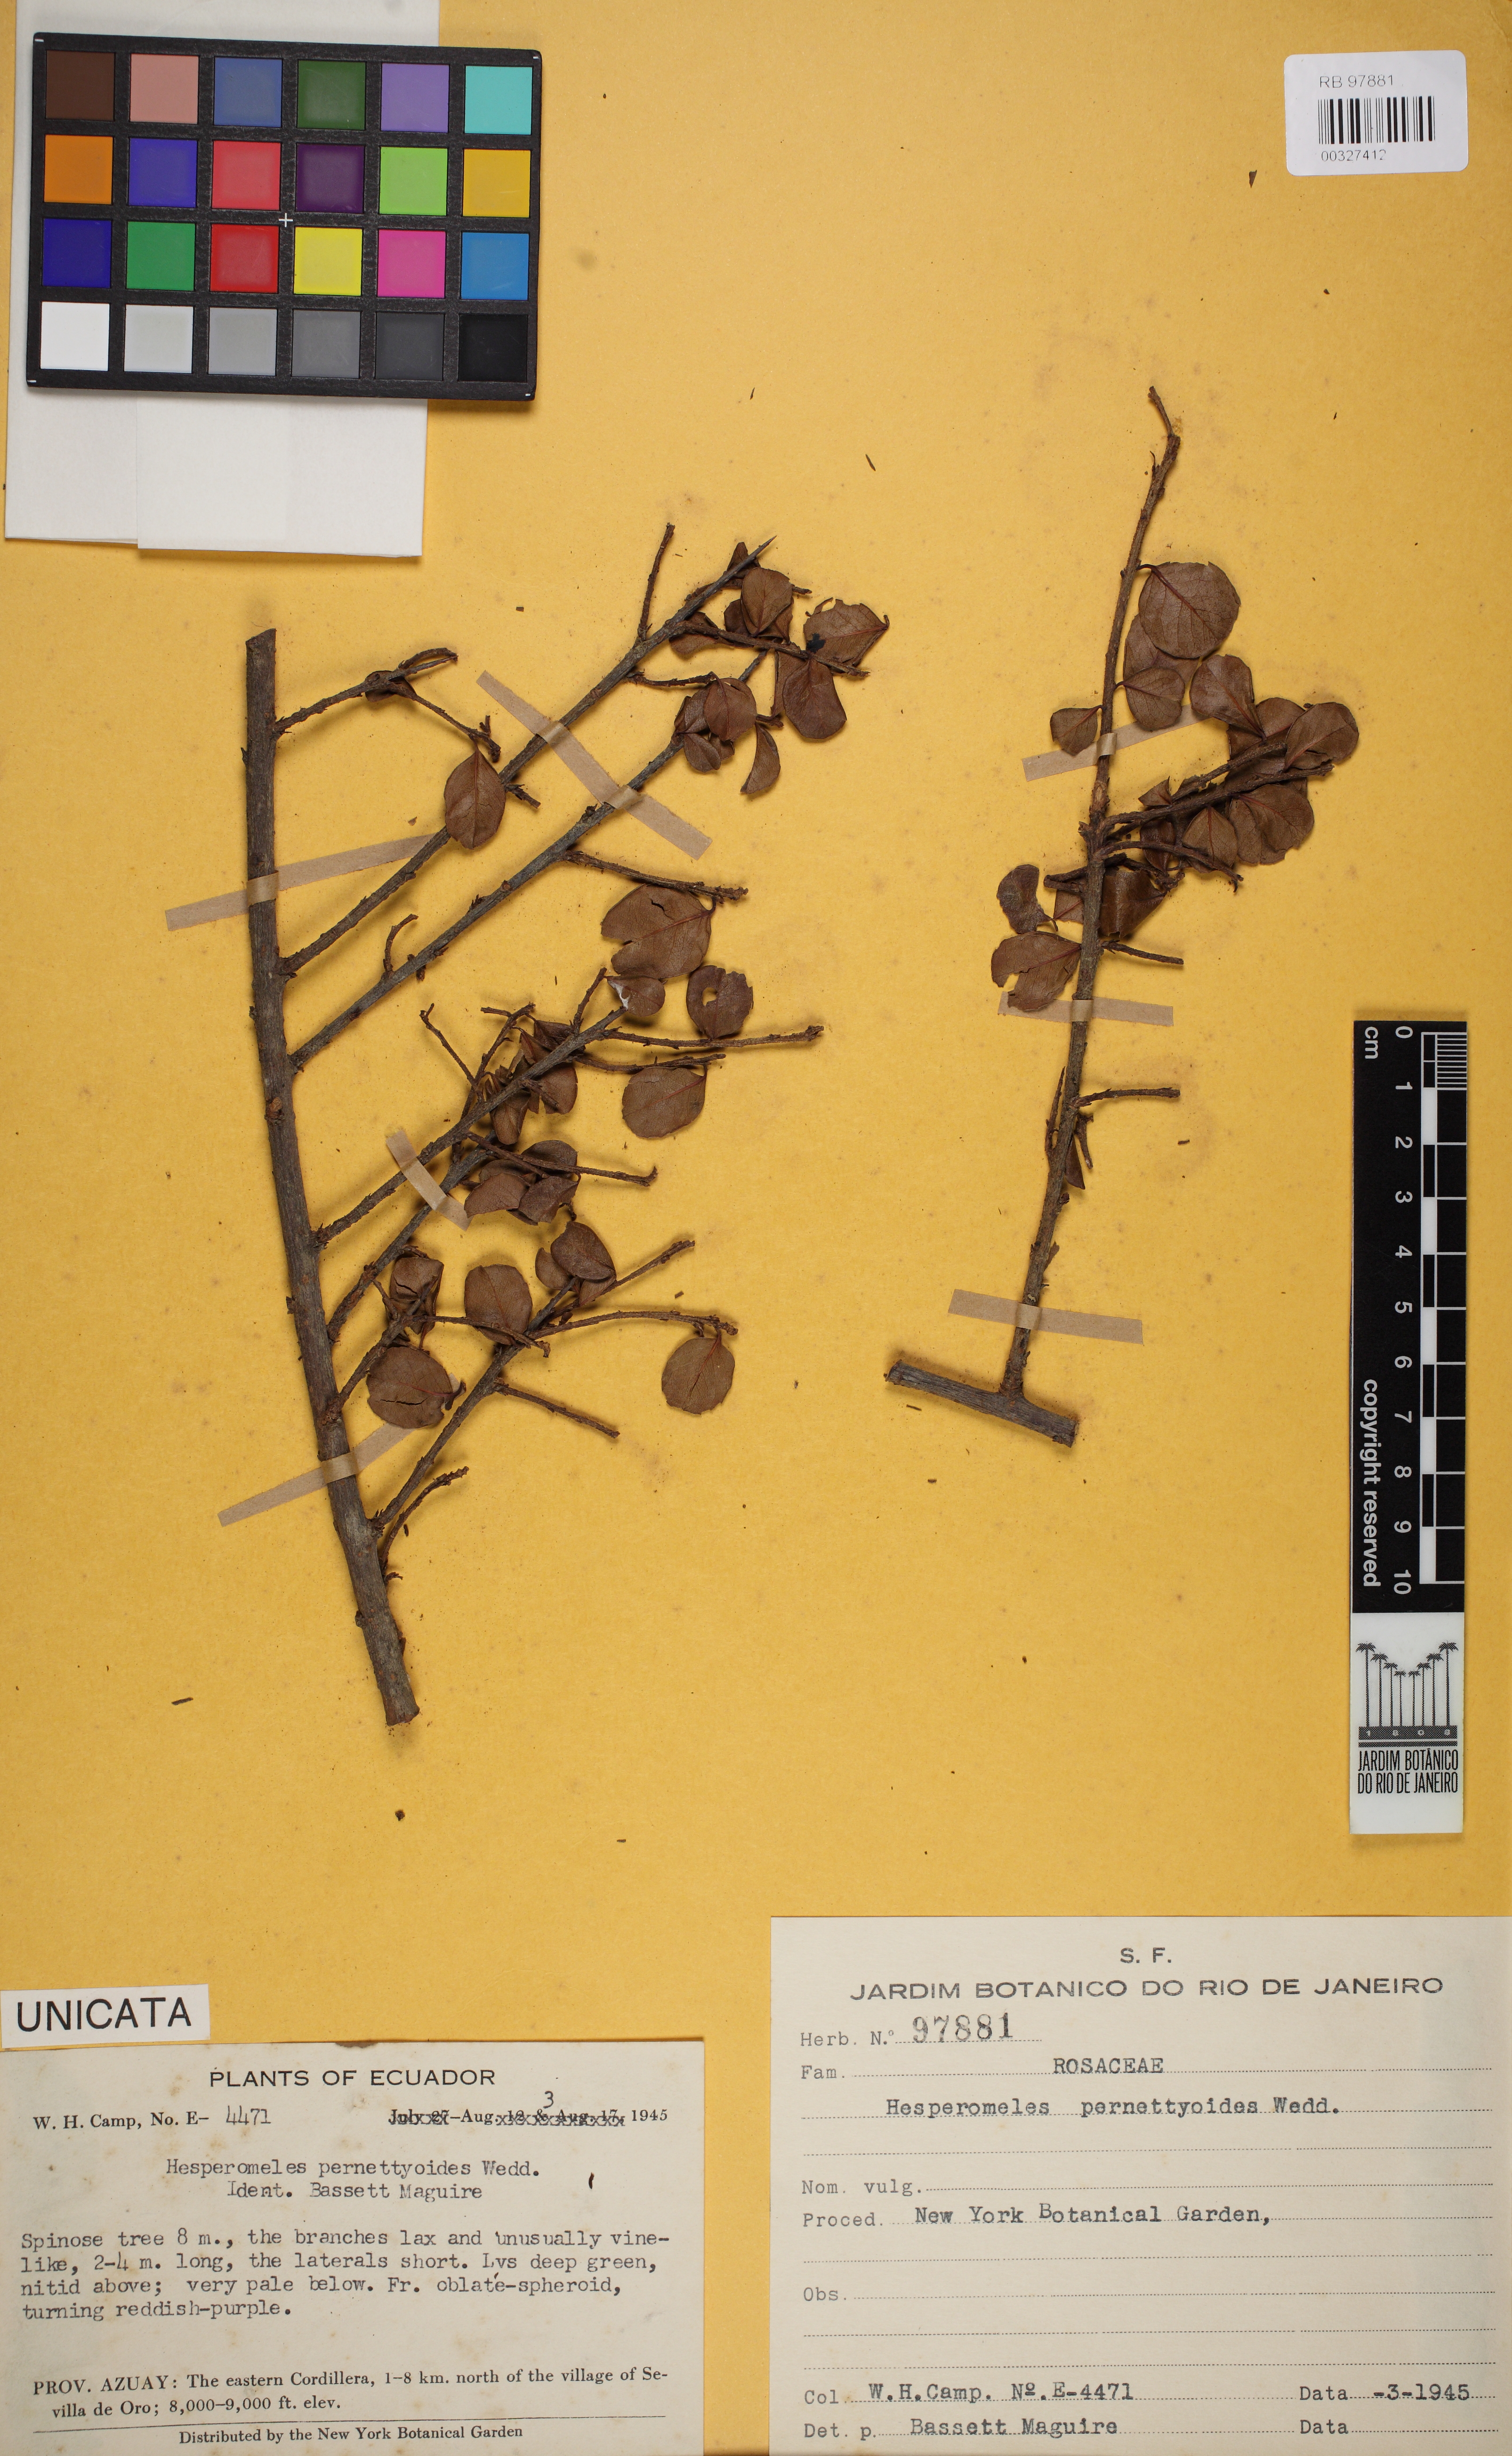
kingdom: Plantae
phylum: Tracheophyta
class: Magnoliopsida
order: Rosales
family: Rosaceae
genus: Hesperomeles
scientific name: Hesperomeles obtusifolia
